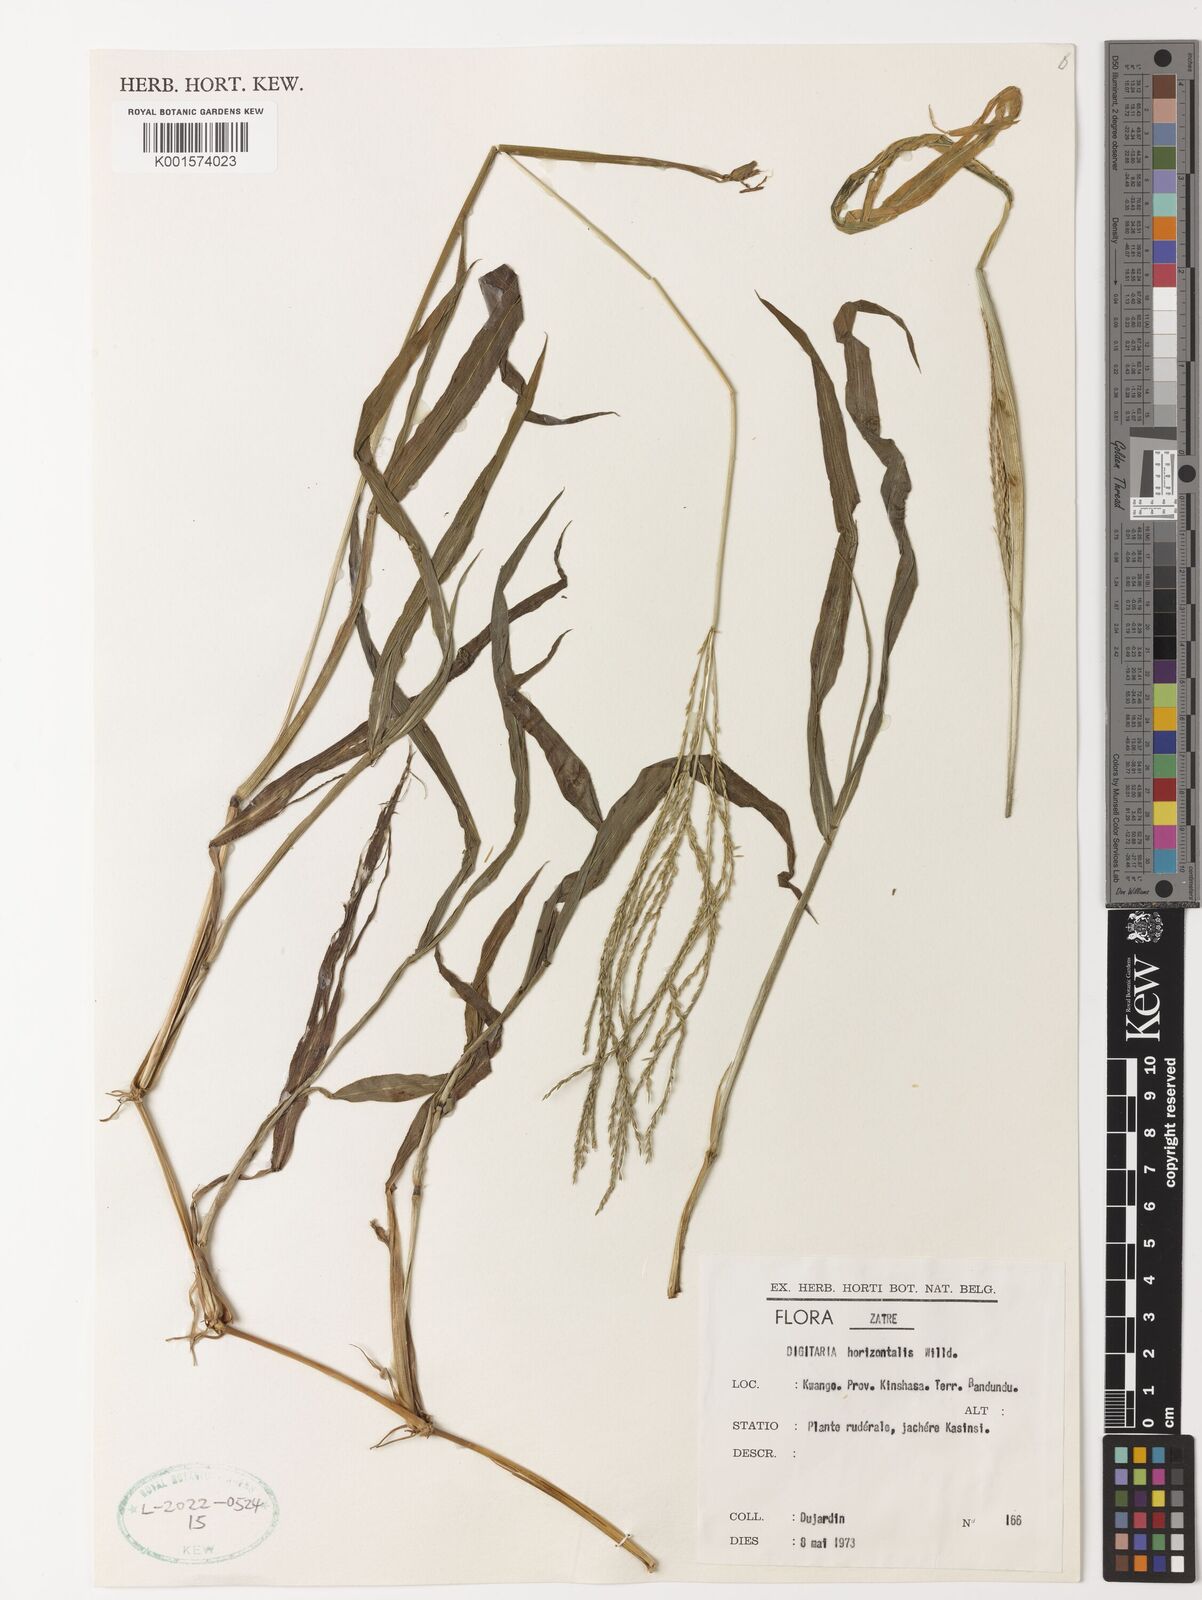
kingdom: Plantae
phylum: Tracheophyta
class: Liliopsida
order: Poales
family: Poaceae
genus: Digitaria
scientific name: Digitaria horizontalis
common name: Jamaican crabgrass
